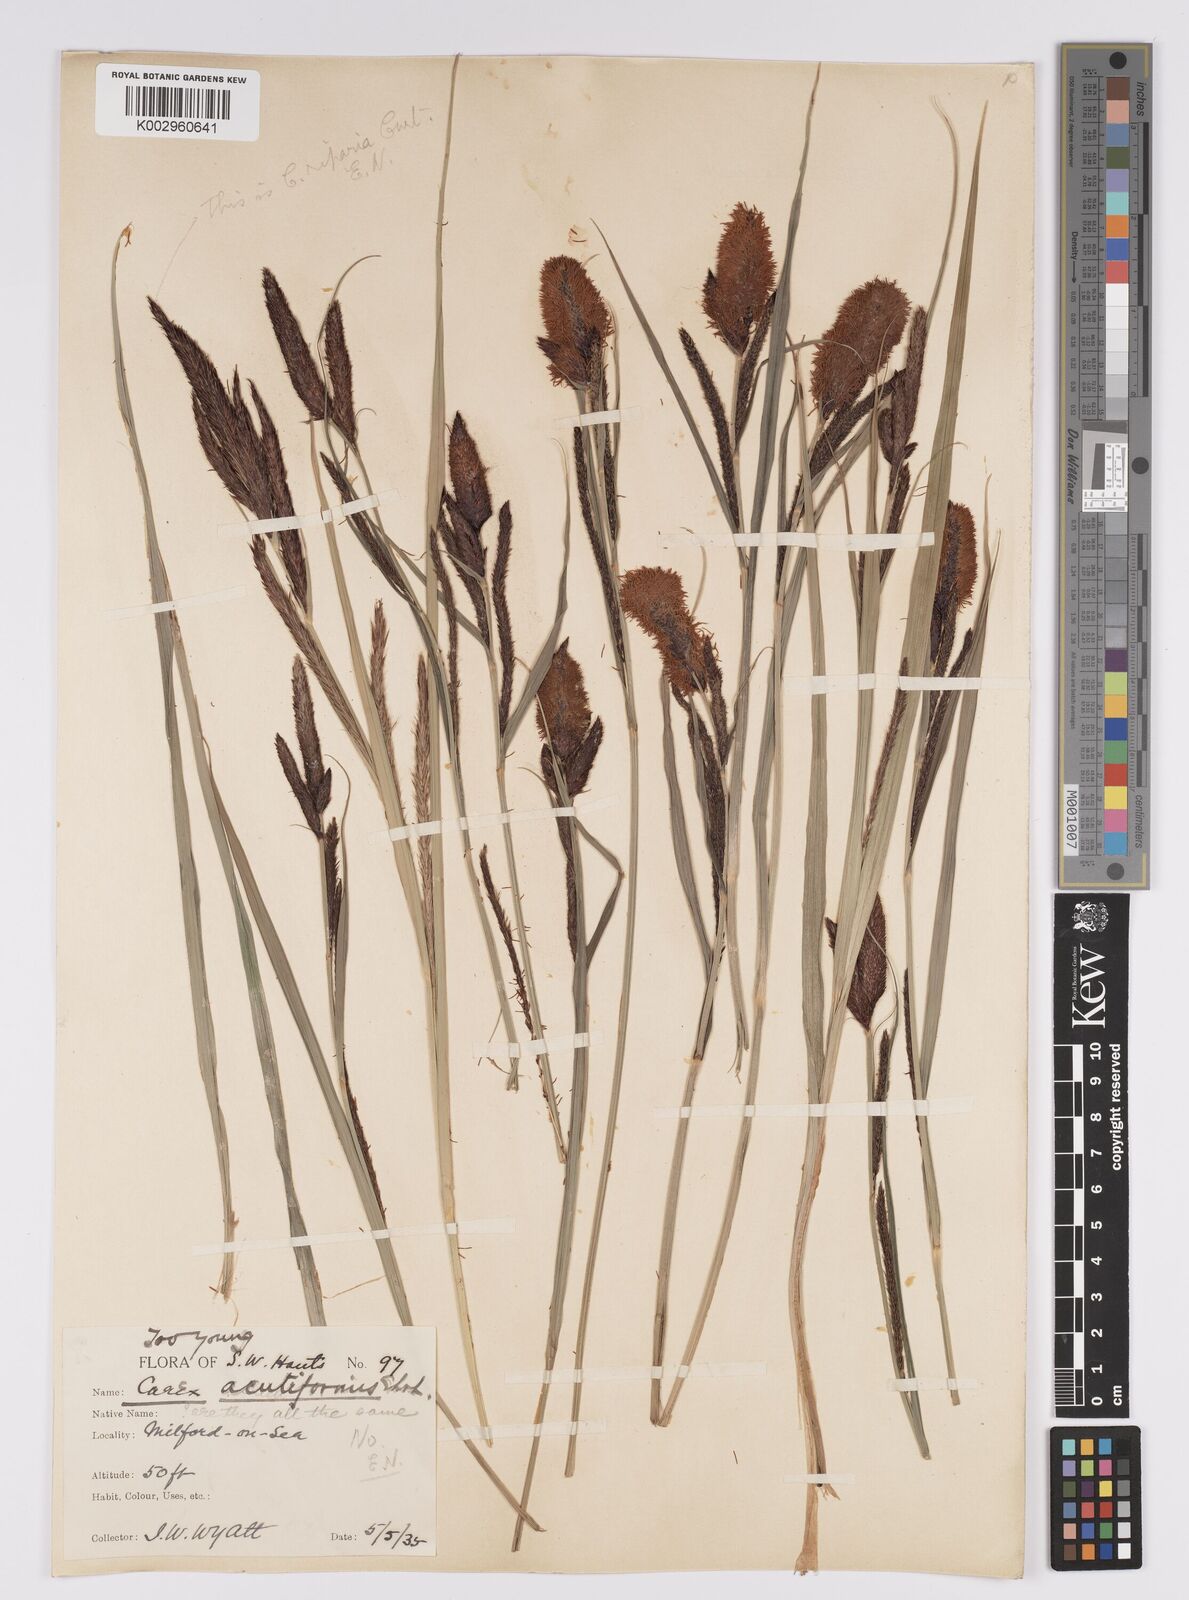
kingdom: Plantae
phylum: Tracheophyta
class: Liliopsida
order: Poales
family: Cyperaceae
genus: Carex
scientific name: Carex acutiformis
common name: Lesser pond-sedge
